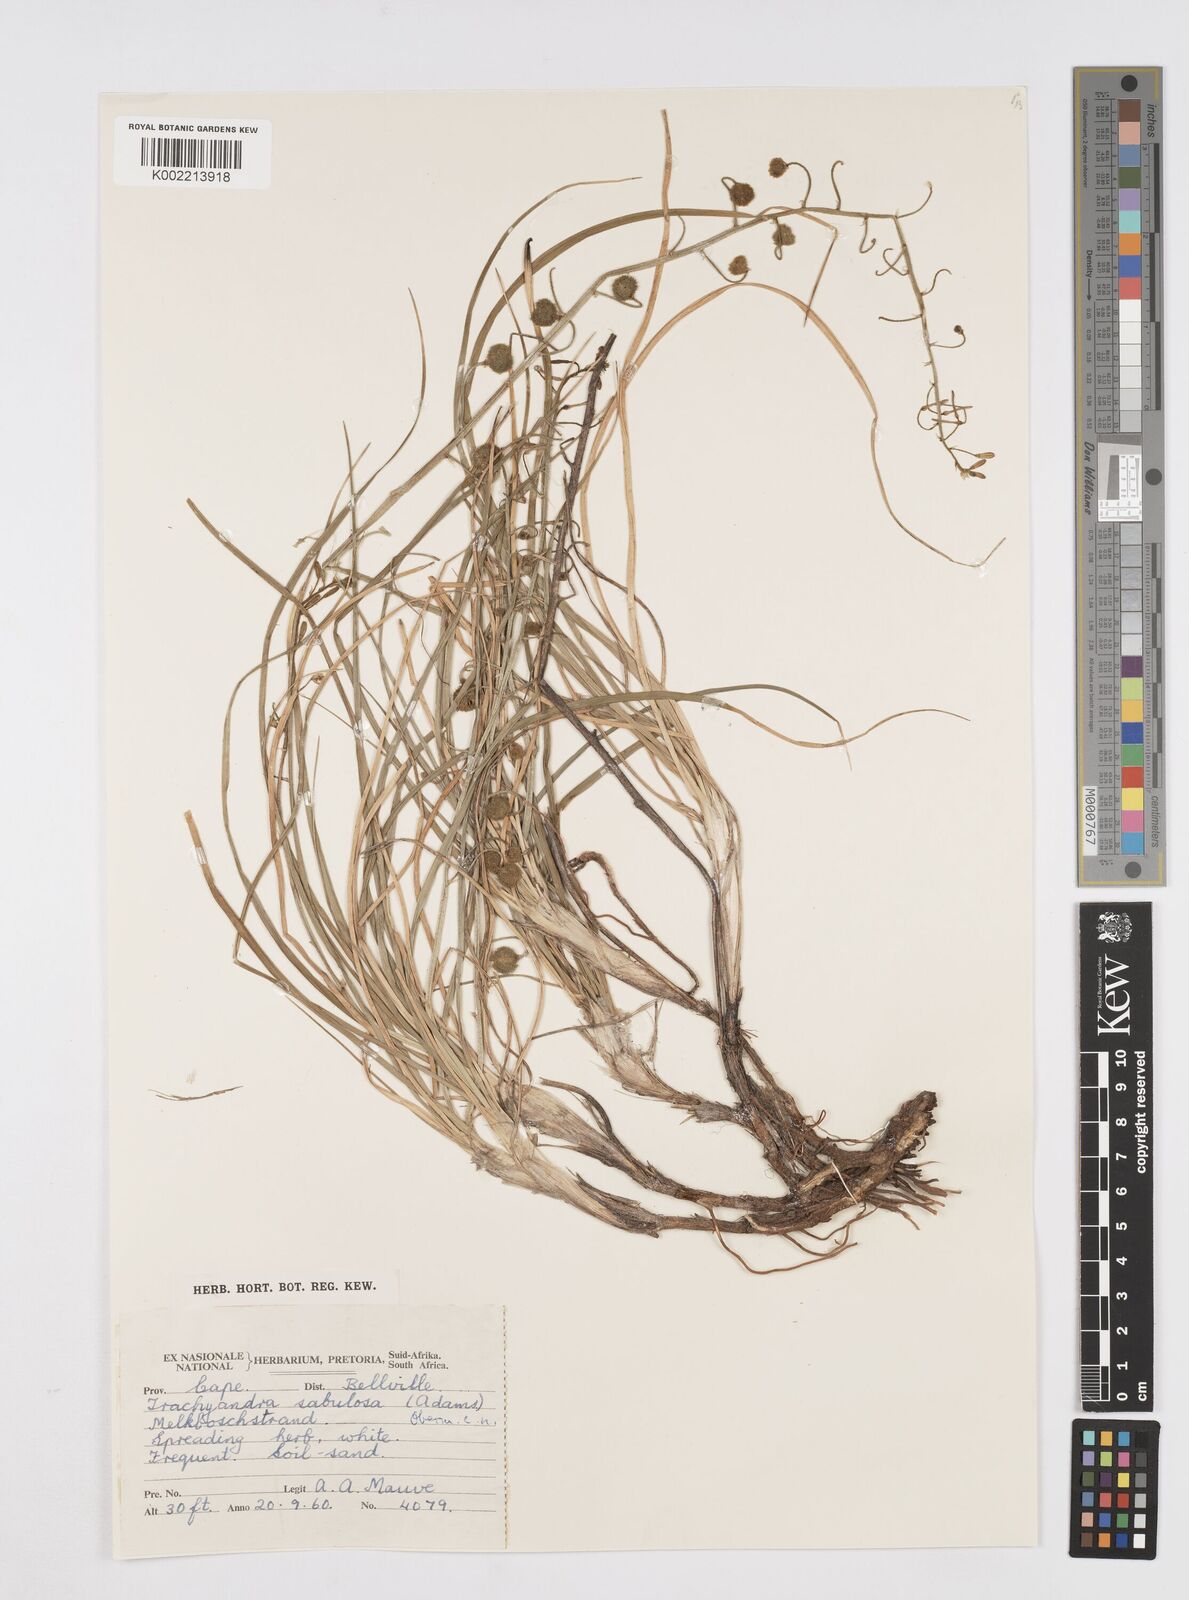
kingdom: Plantae
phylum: Tracheophyta
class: Liliopsida
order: Asparagales
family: Asphodelaceae
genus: Trachyandra
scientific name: Trachyandra sabulosa
